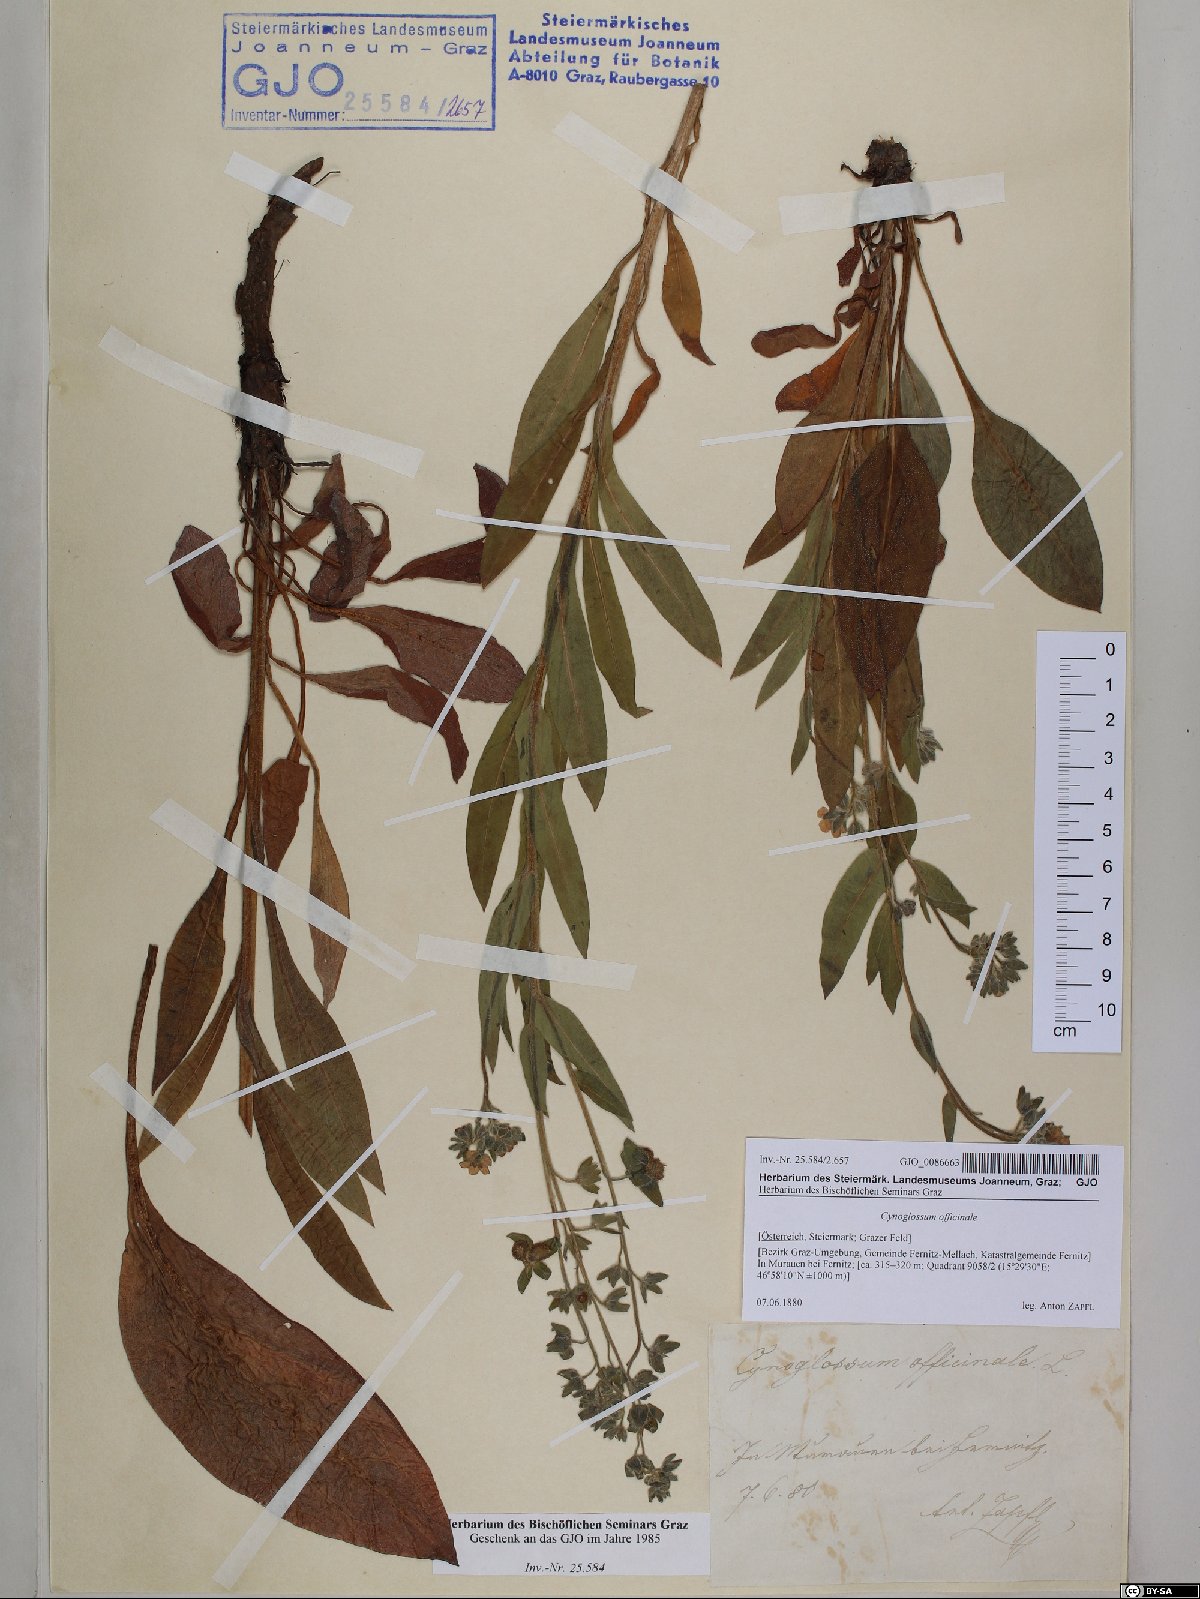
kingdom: Plantae
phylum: Tracheophyta
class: Magnoliopsida
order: Boraginales
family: Boraginaceae
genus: Cynoglossum
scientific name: Cynoglossum officinale
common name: Hound's-tongue
